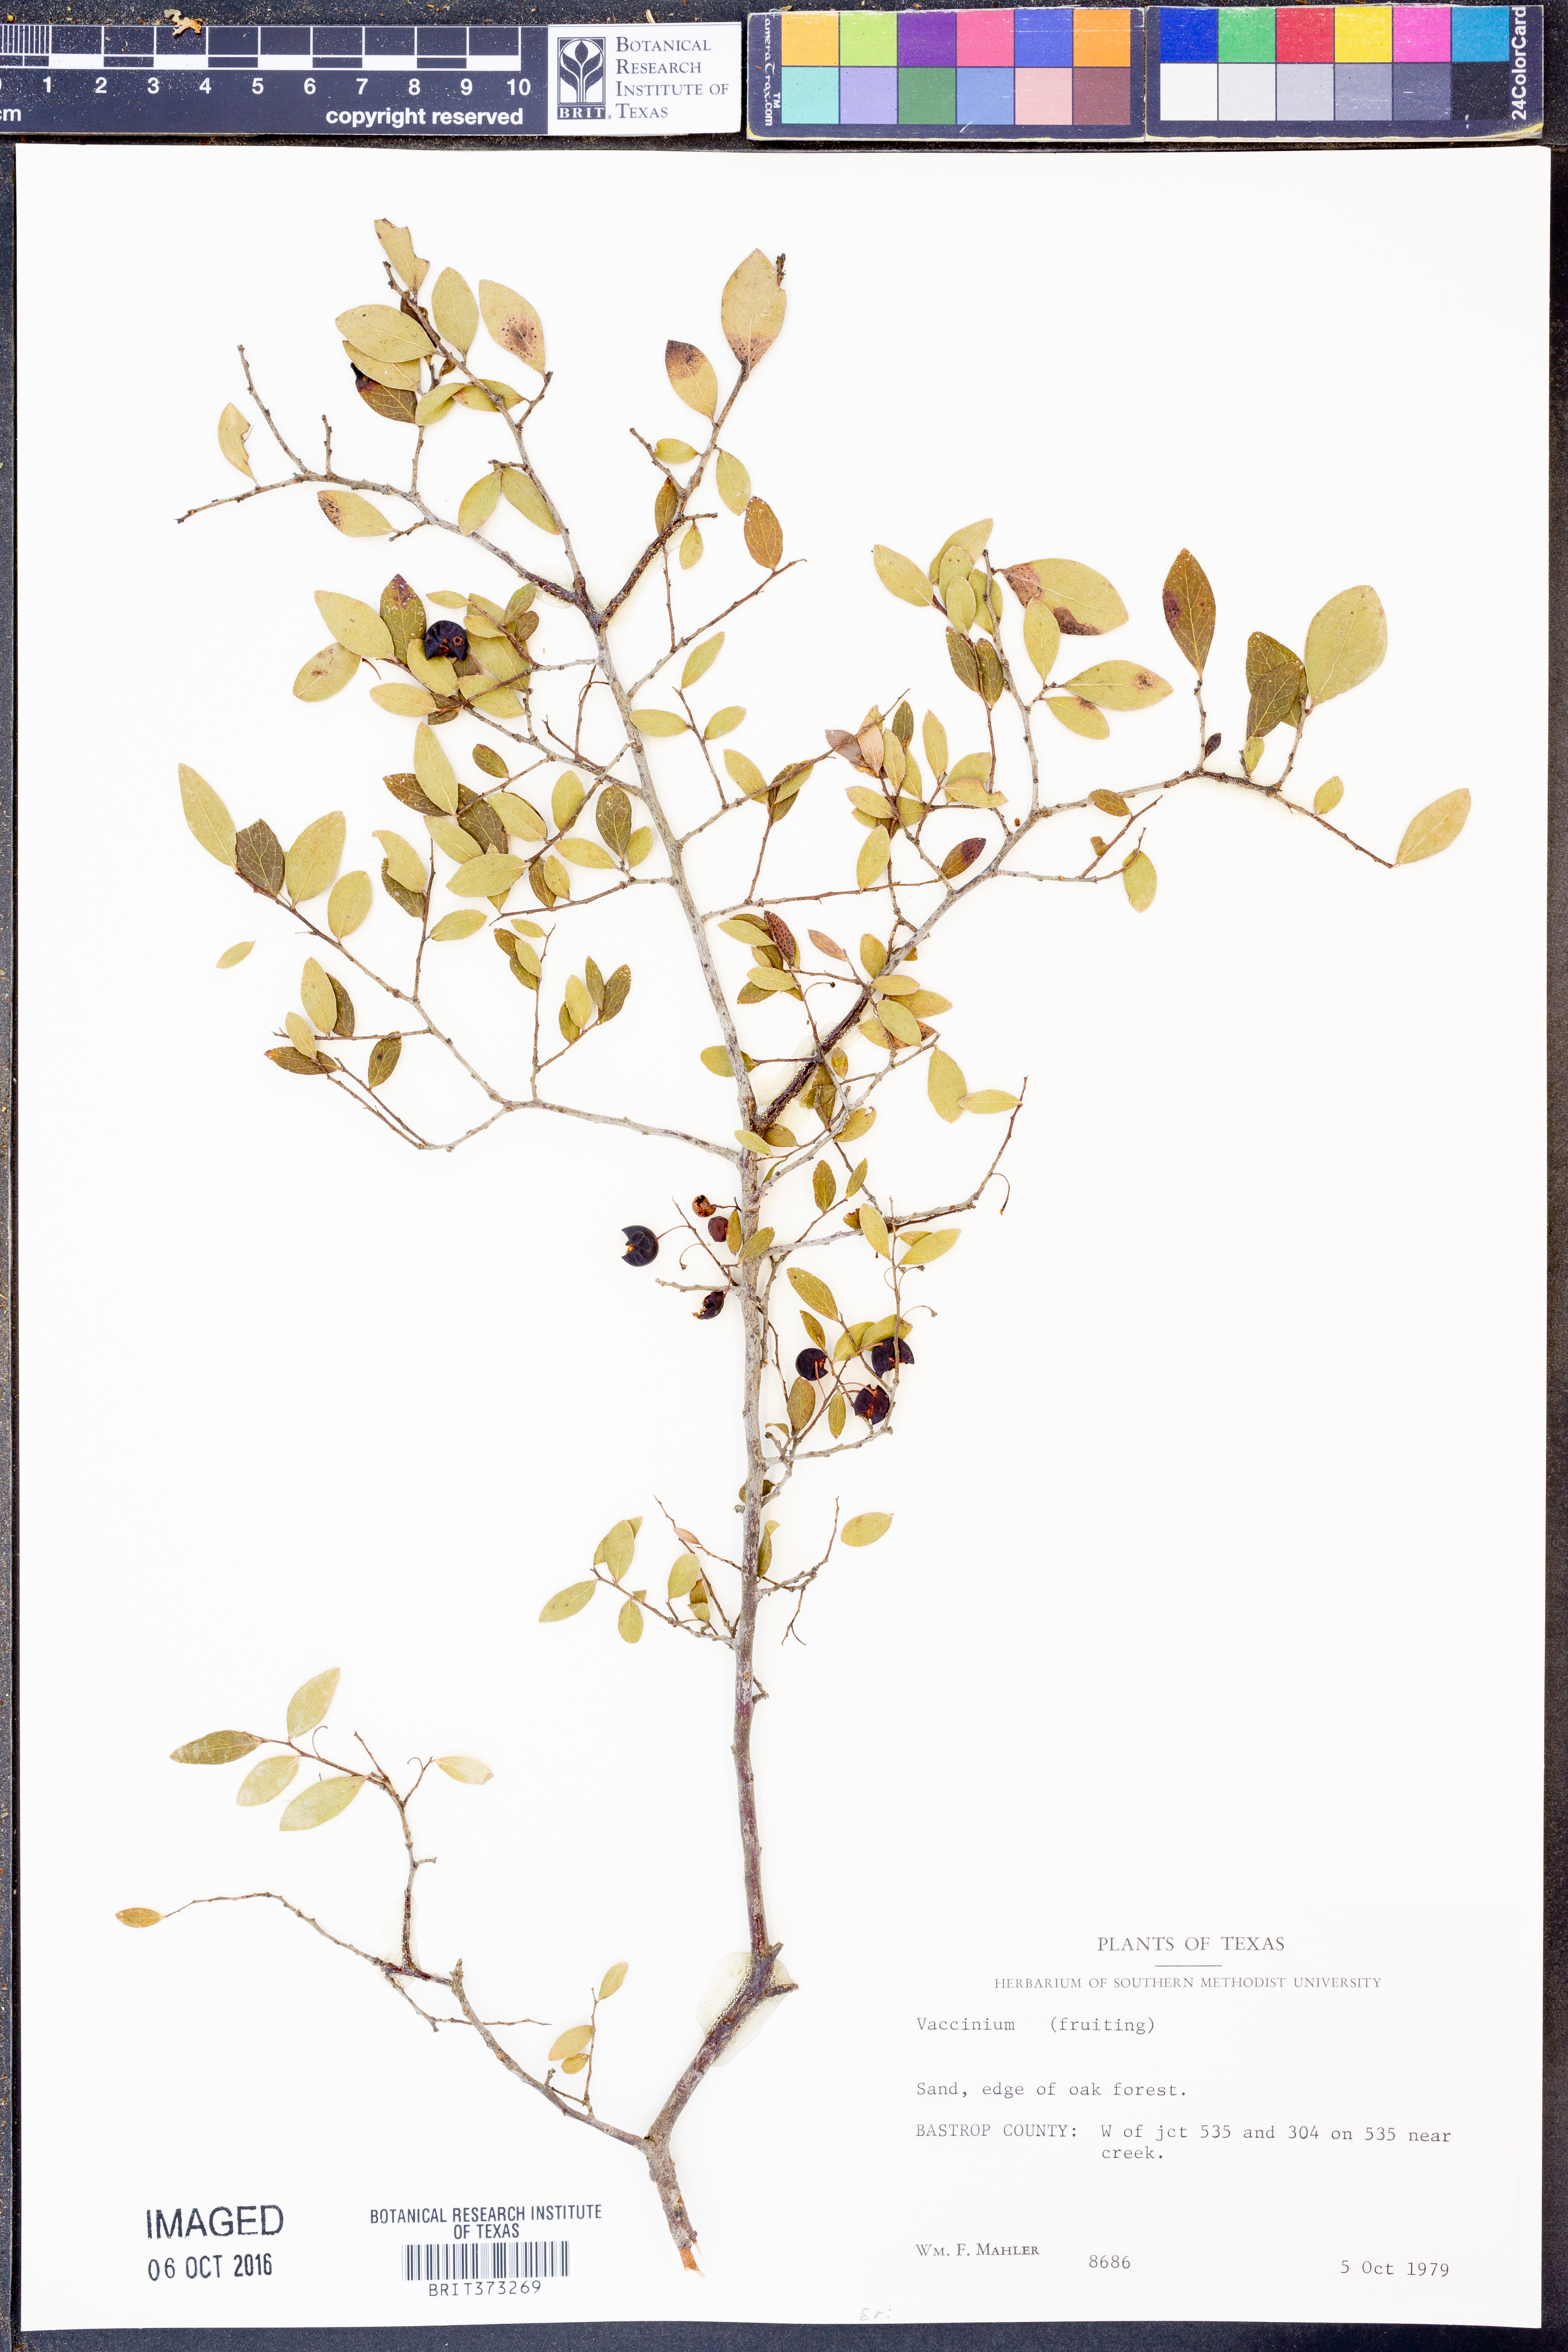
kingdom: Plantae
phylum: Tracheophyta
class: Magnoliopsida
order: Ericales
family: Ericaceae
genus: Vaccinium
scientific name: Vaccinium arboreum
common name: Farkleberry
